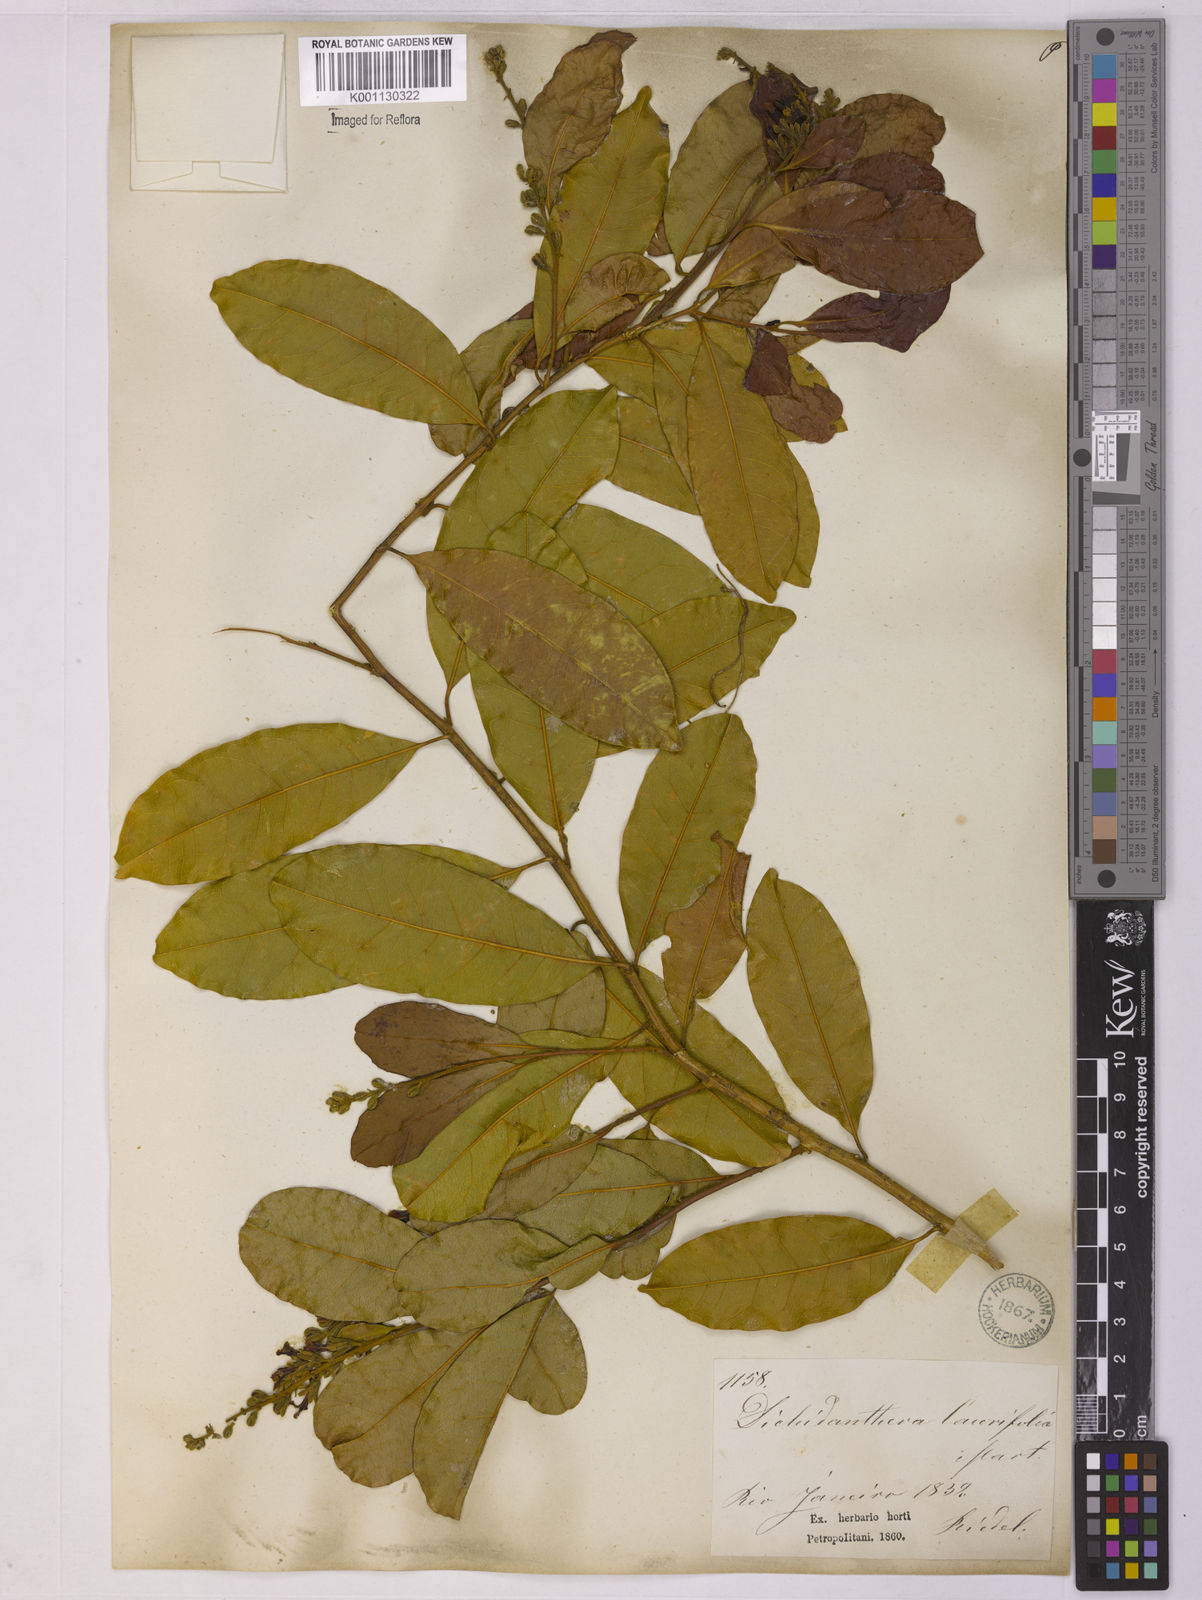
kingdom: Plantae
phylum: Tracheophyta
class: Magnoliopsida
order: Fabales
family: Polygalaceae
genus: Diclidanthera
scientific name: Diclidanthera laurifolia
